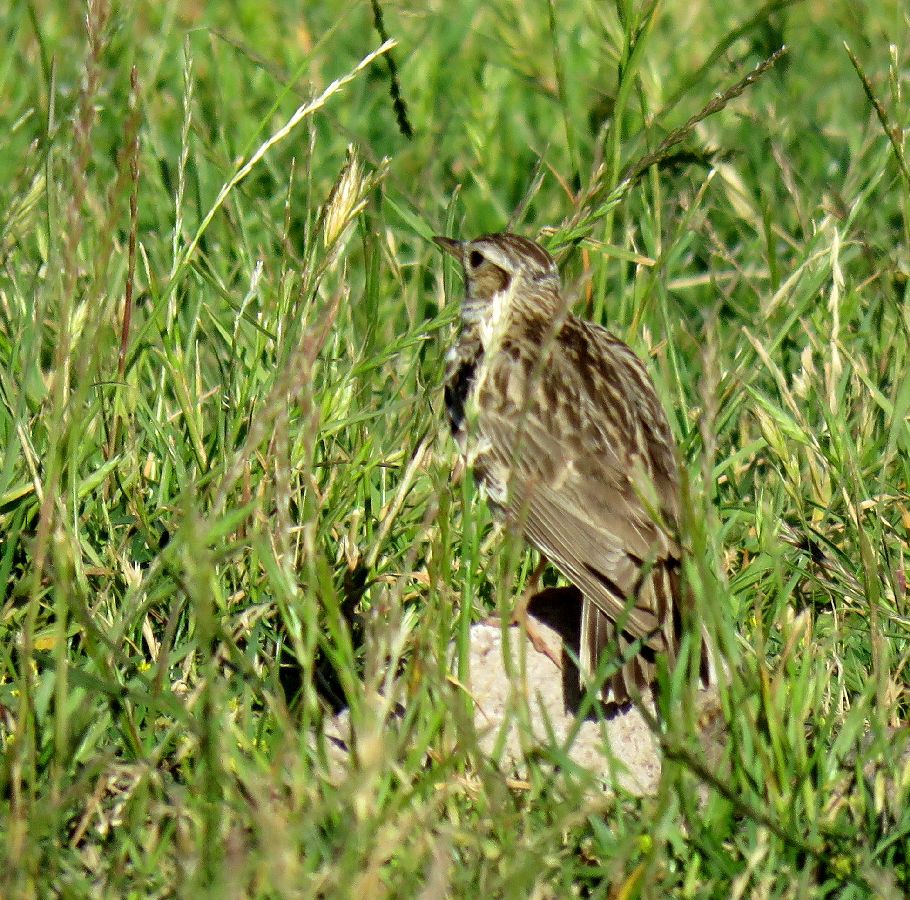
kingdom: Animalia
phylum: Chordata
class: Aves
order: Passeriformes
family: Alaudidae
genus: Lullula
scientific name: Lullula arborea
